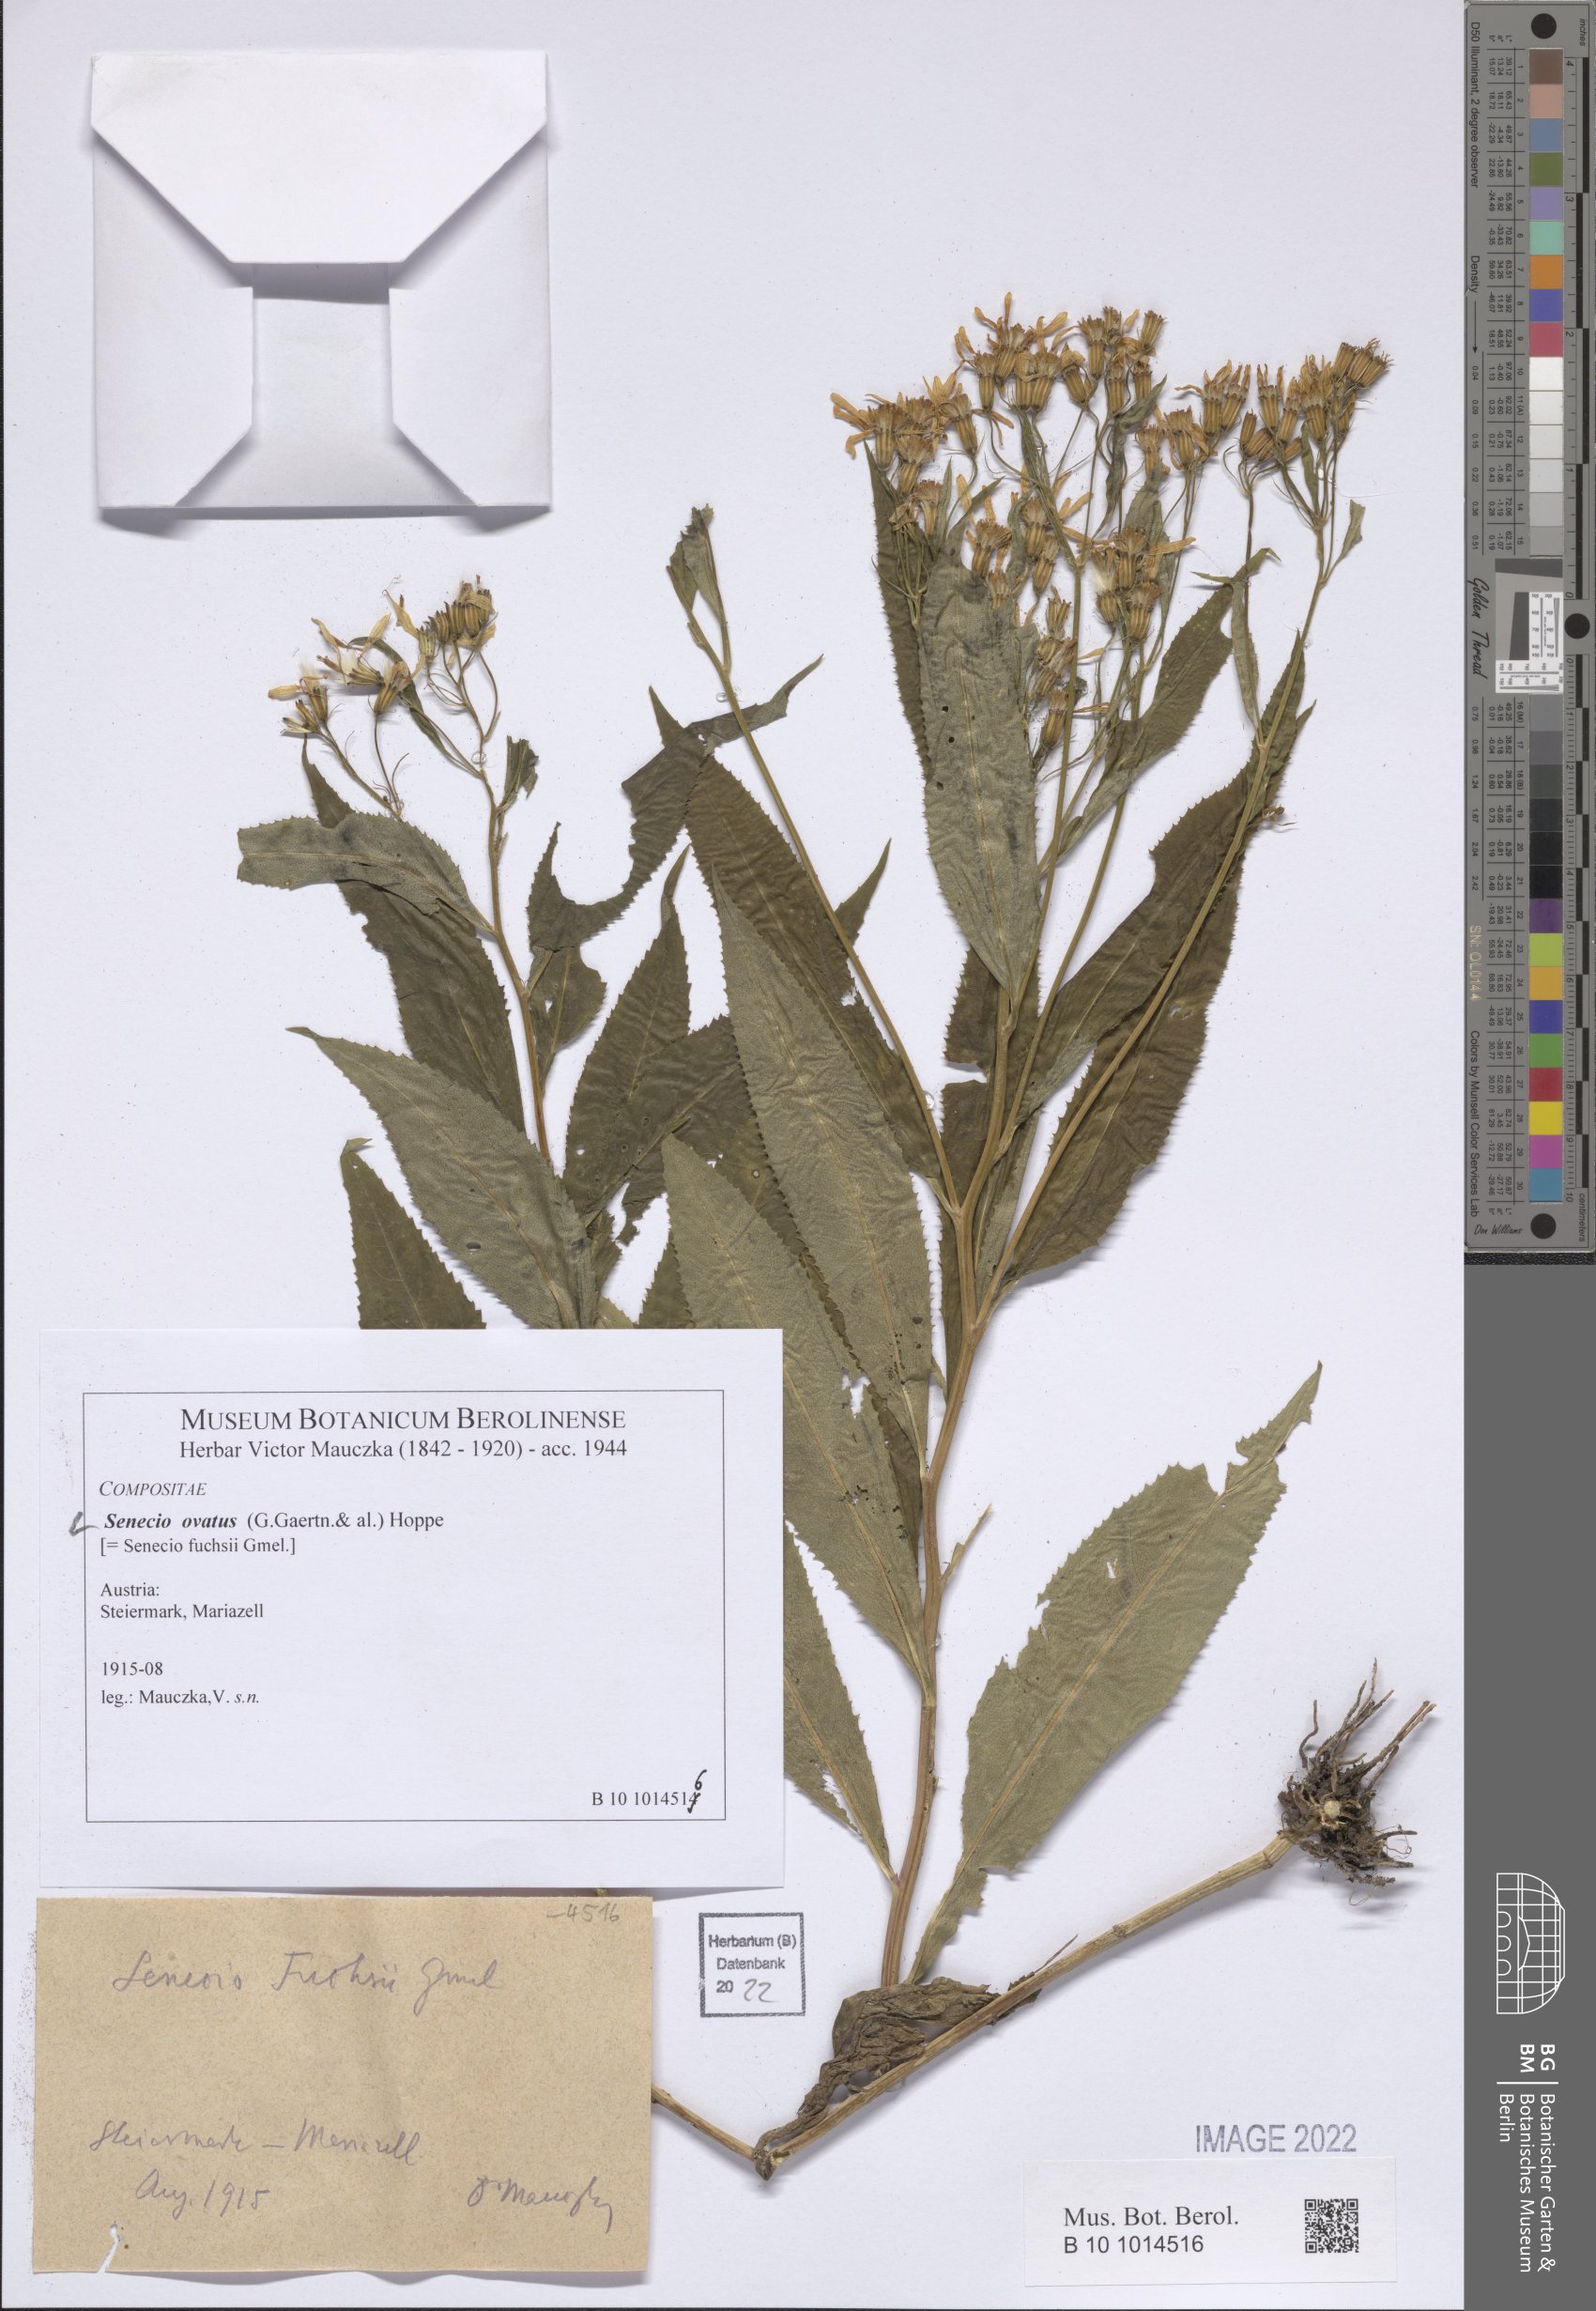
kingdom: Plantae
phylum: Tracheophyta
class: Magnoliopsida
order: Asterales
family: Asteraceae
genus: Senecio
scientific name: Senecio ovatus
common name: Wood ragwort
